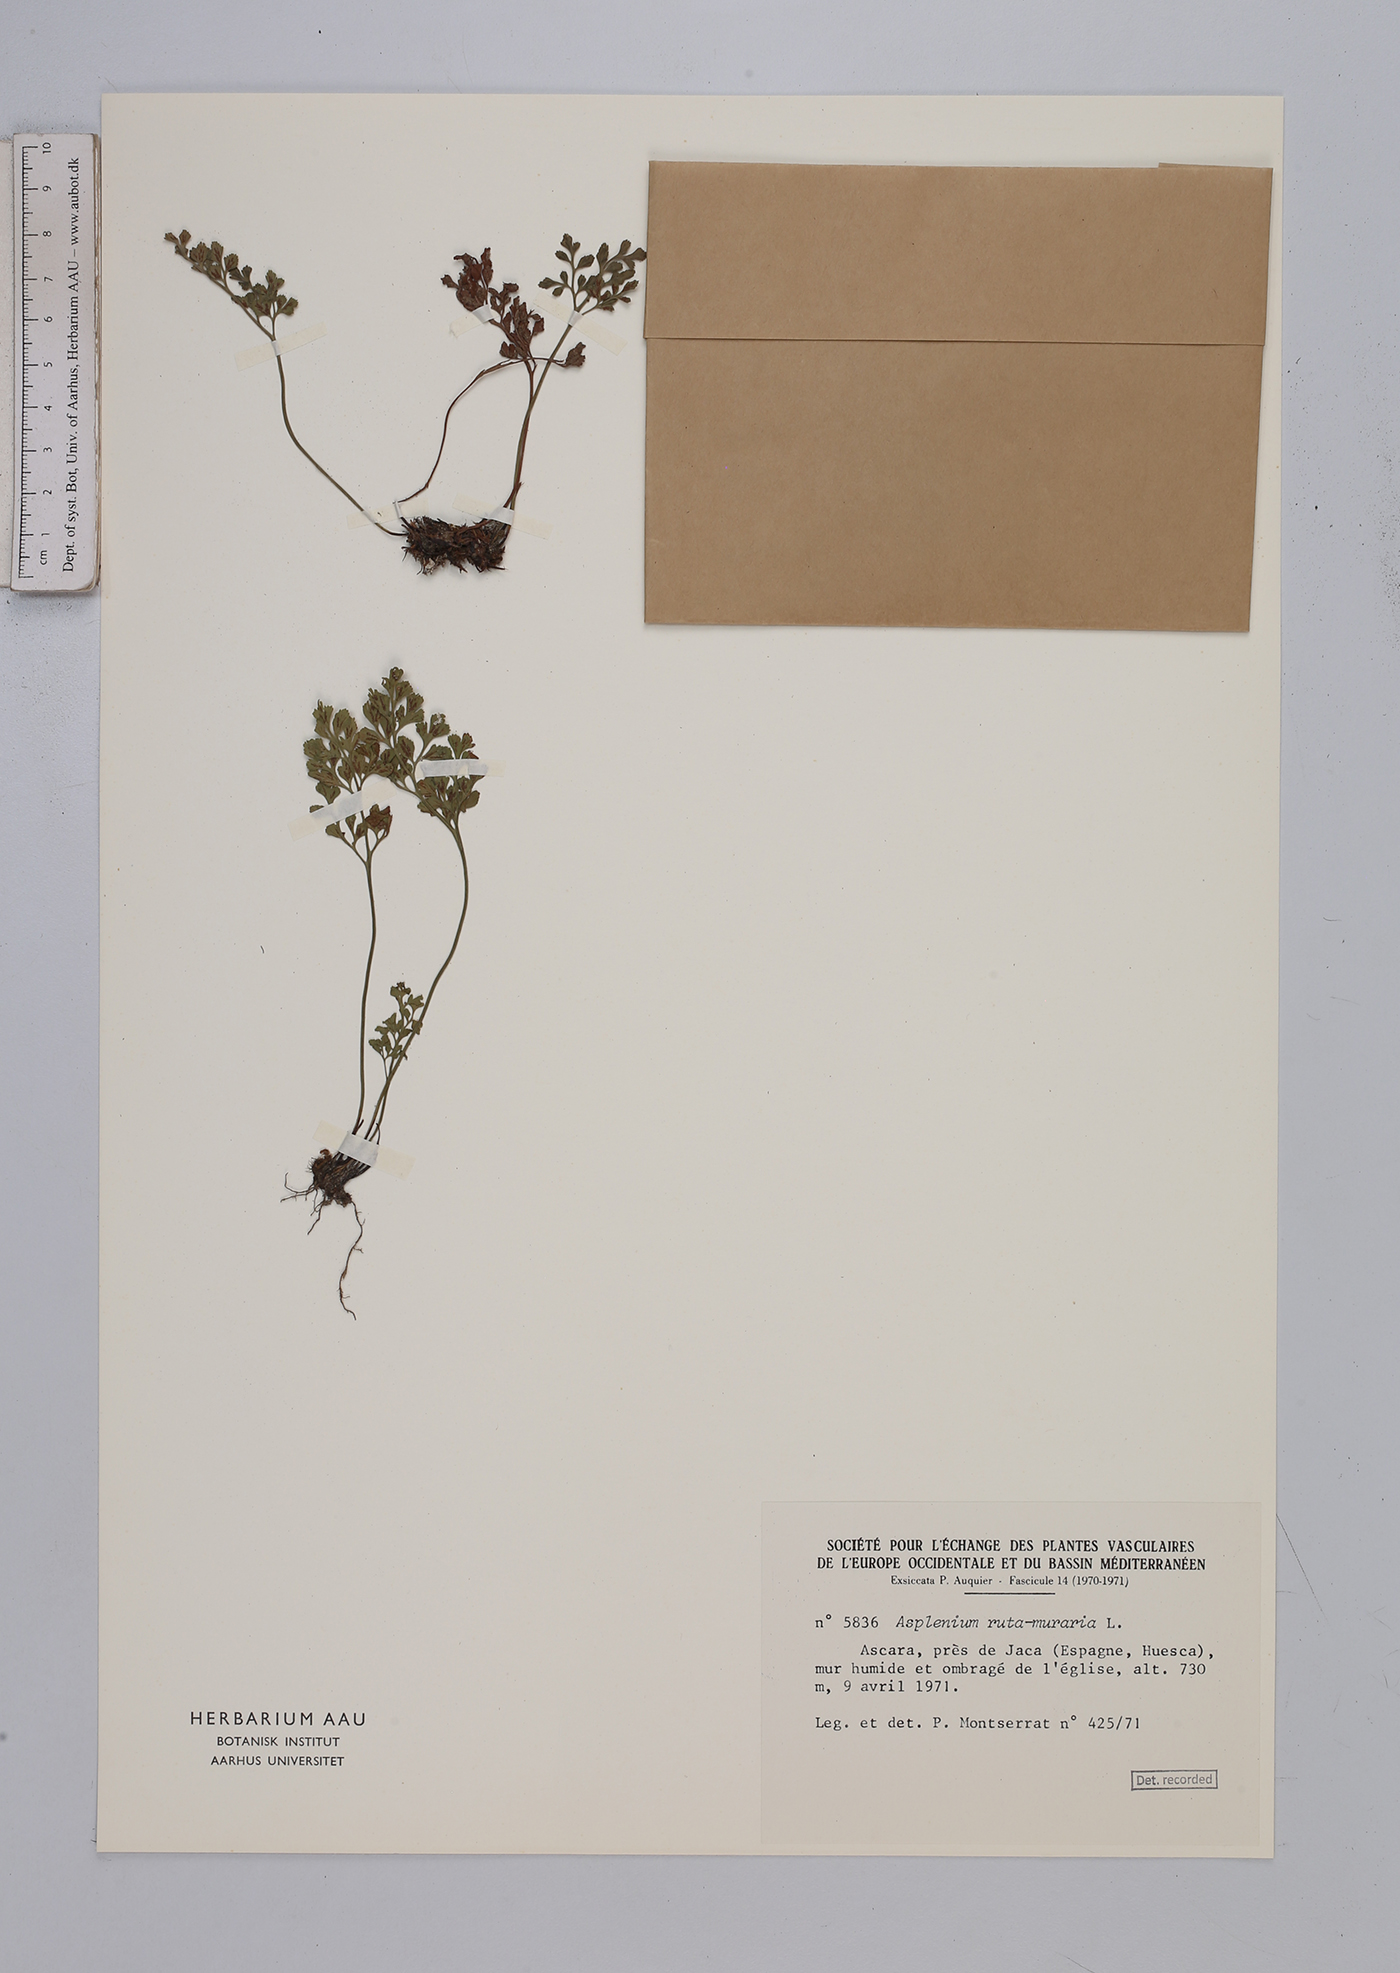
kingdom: Plantae
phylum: Tracheophyta
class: Polypodiopsida
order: Polypodiales
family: Aspleniaceae
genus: Asplenium
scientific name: Asplenium ruta-muraria
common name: Wall-rue
